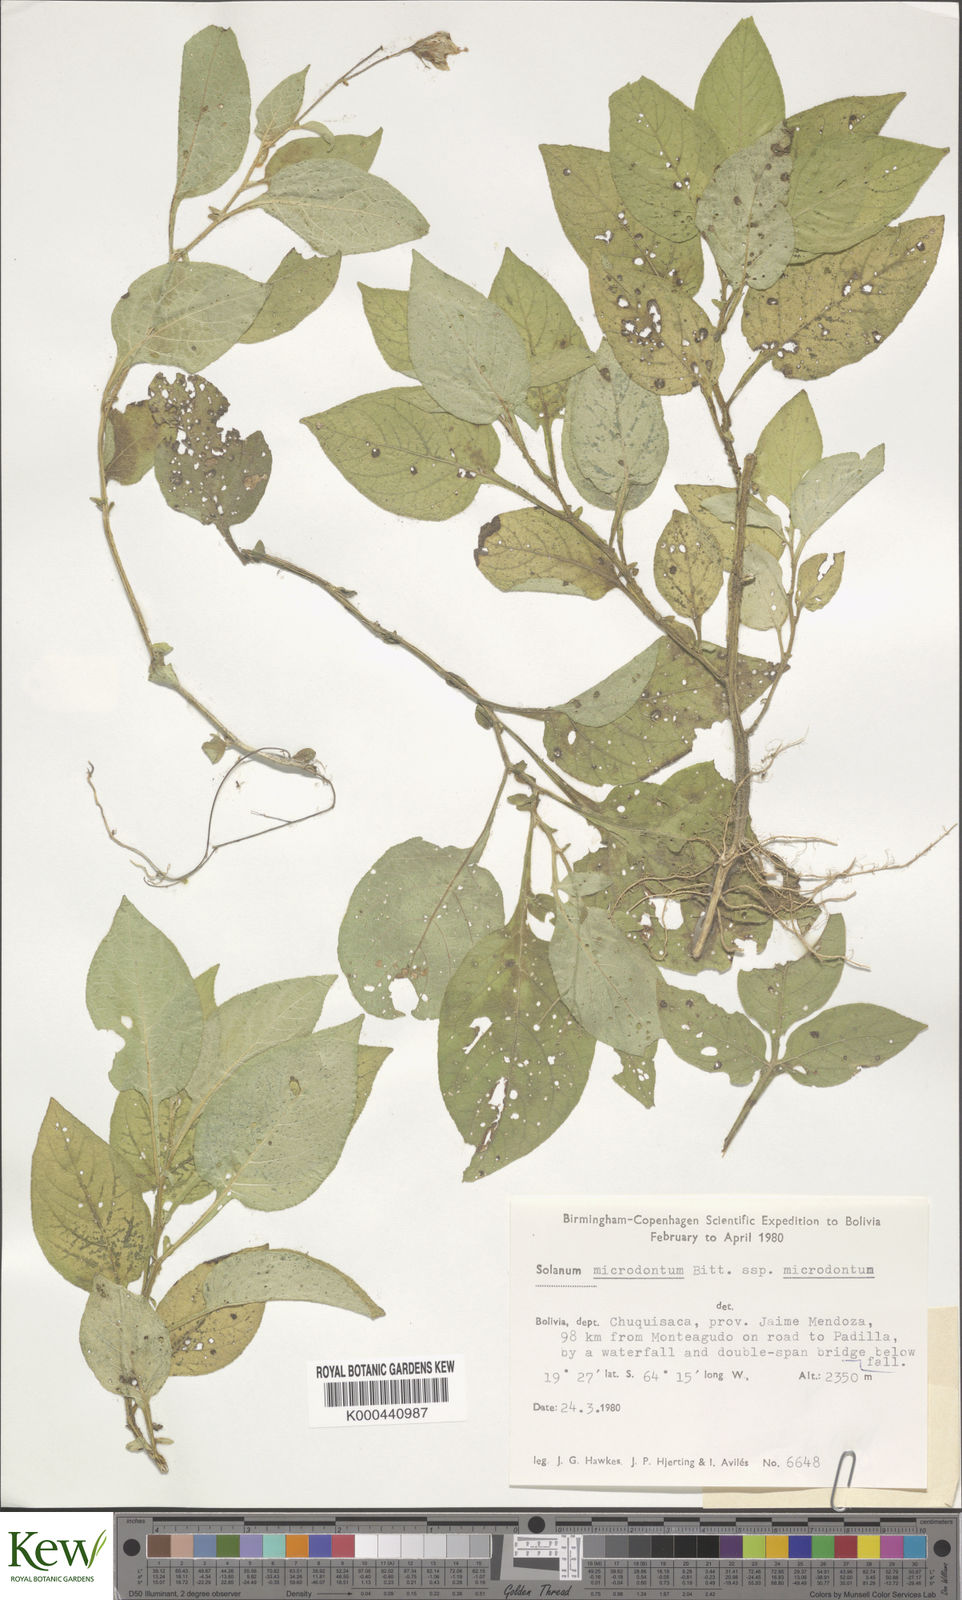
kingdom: Plantae
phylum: Tracheophyta
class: Magnoliopsida
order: Solanales
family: Solanaceae
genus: Solanum
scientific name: Solanum microdontum
